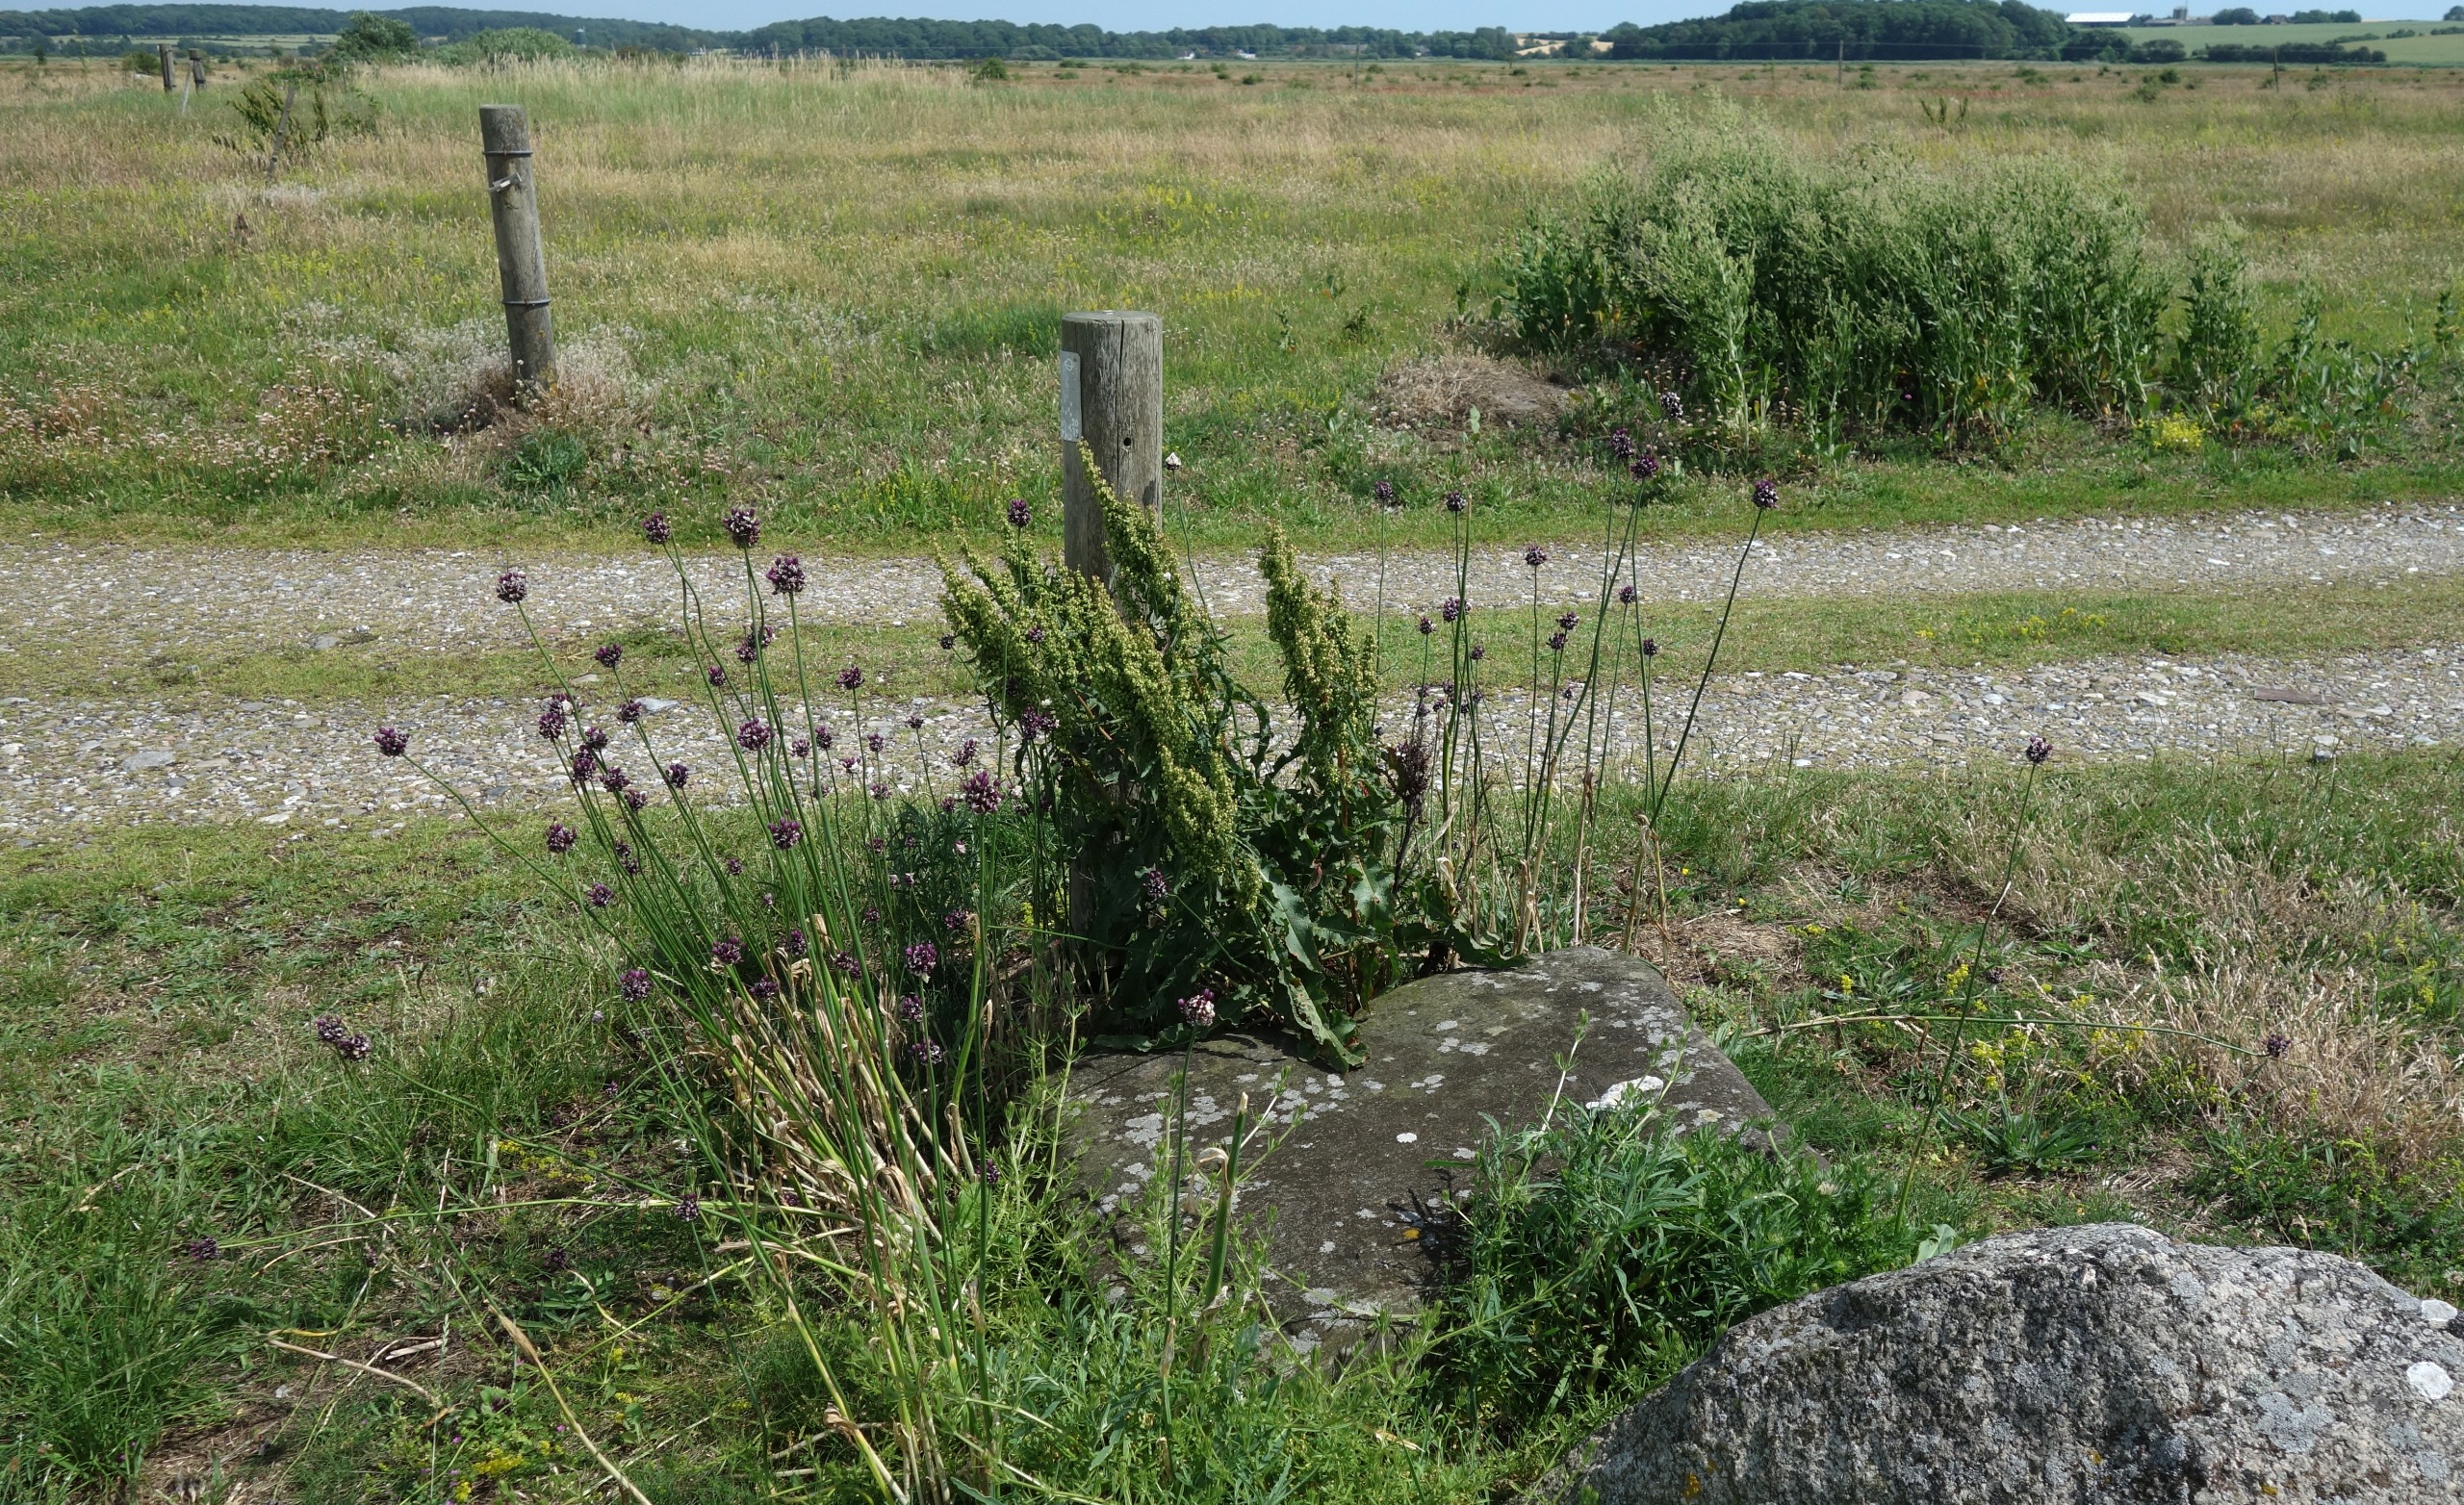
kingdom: Plantae
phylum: Tracheophyta
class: Liliopsida
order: Asparagales
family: Amaryllidaceae
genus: Allium
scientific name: Allium scorodoprasum
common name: Skov-løg
